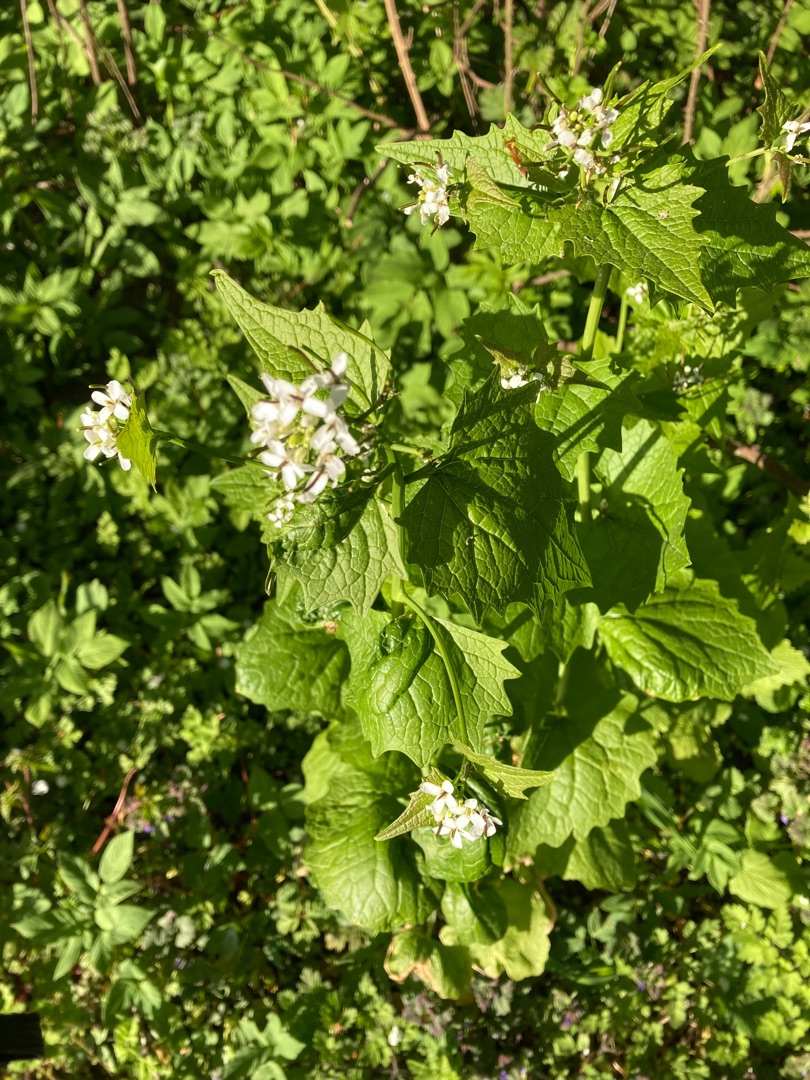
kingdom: Plantae
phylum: Tracheophyta
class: Magnoliopsida
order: Brassicales
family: Brassicaceae
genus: Alliaria
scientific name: Alliaria petiolata
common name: Løgkarse
